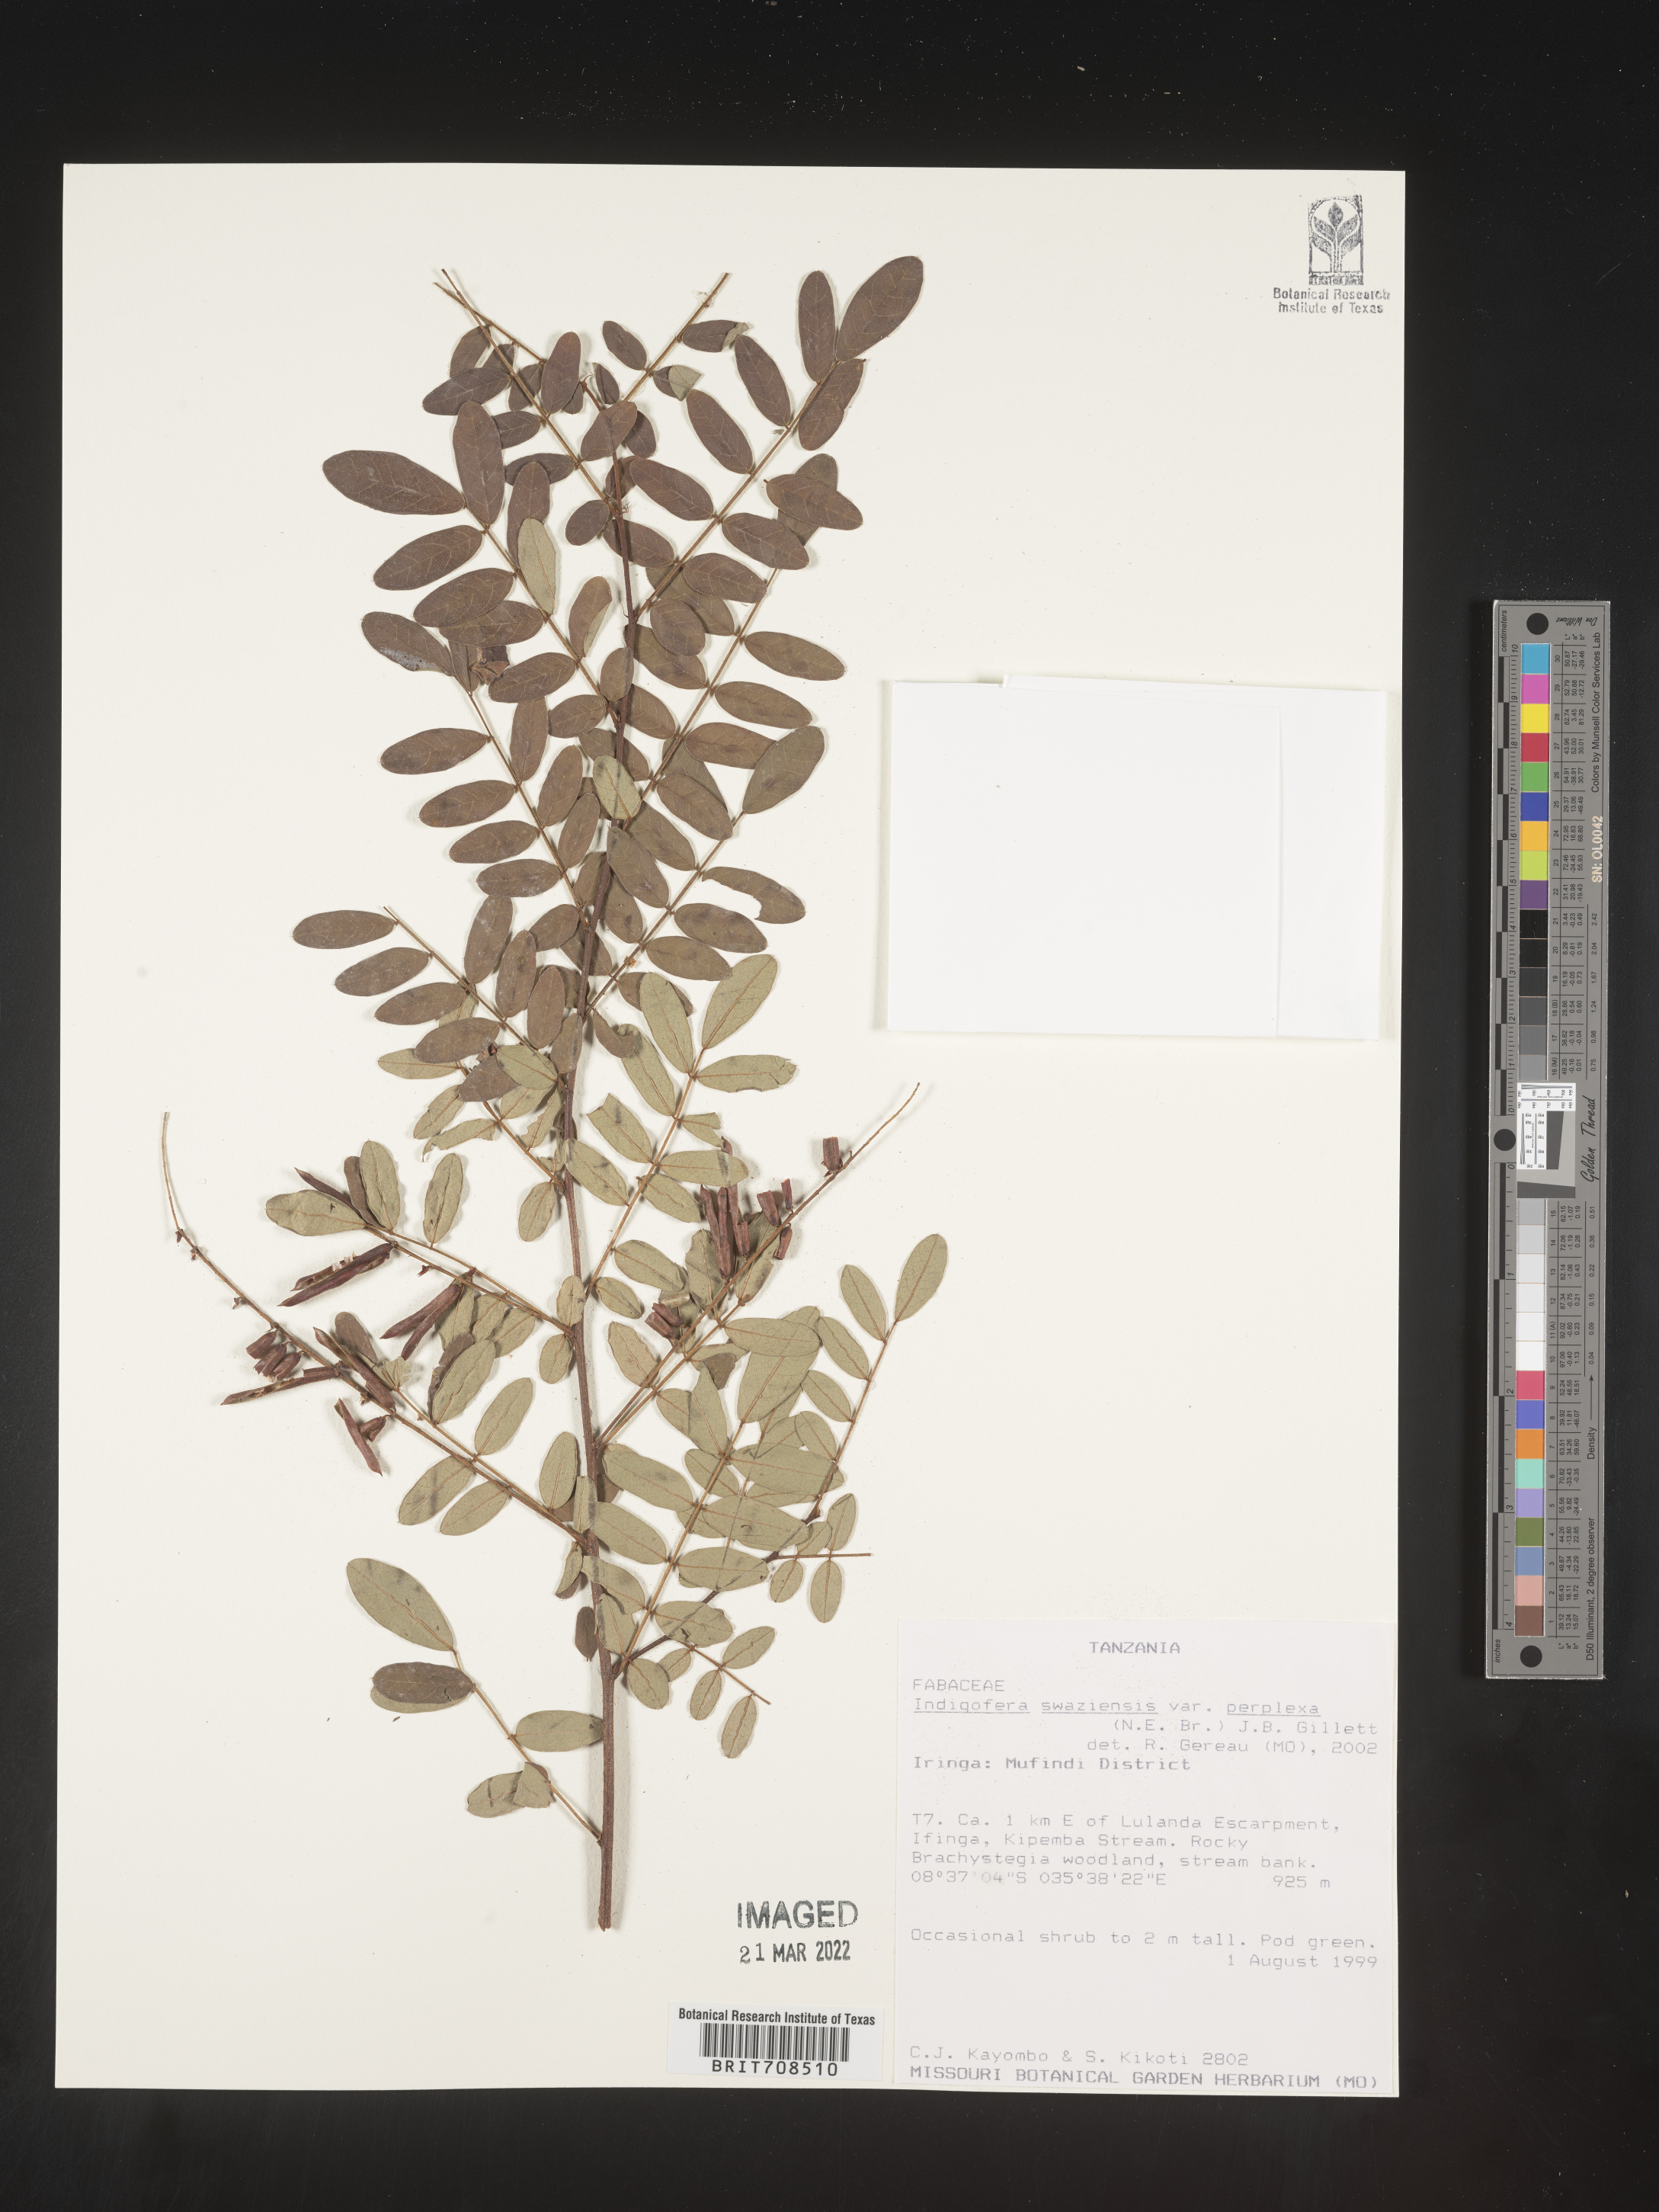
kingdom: Plantae
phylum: Tracheophyta
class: Magnoliopsida
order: Fabales
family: Fabaceae
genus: Indigofera
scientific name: Indigofera
